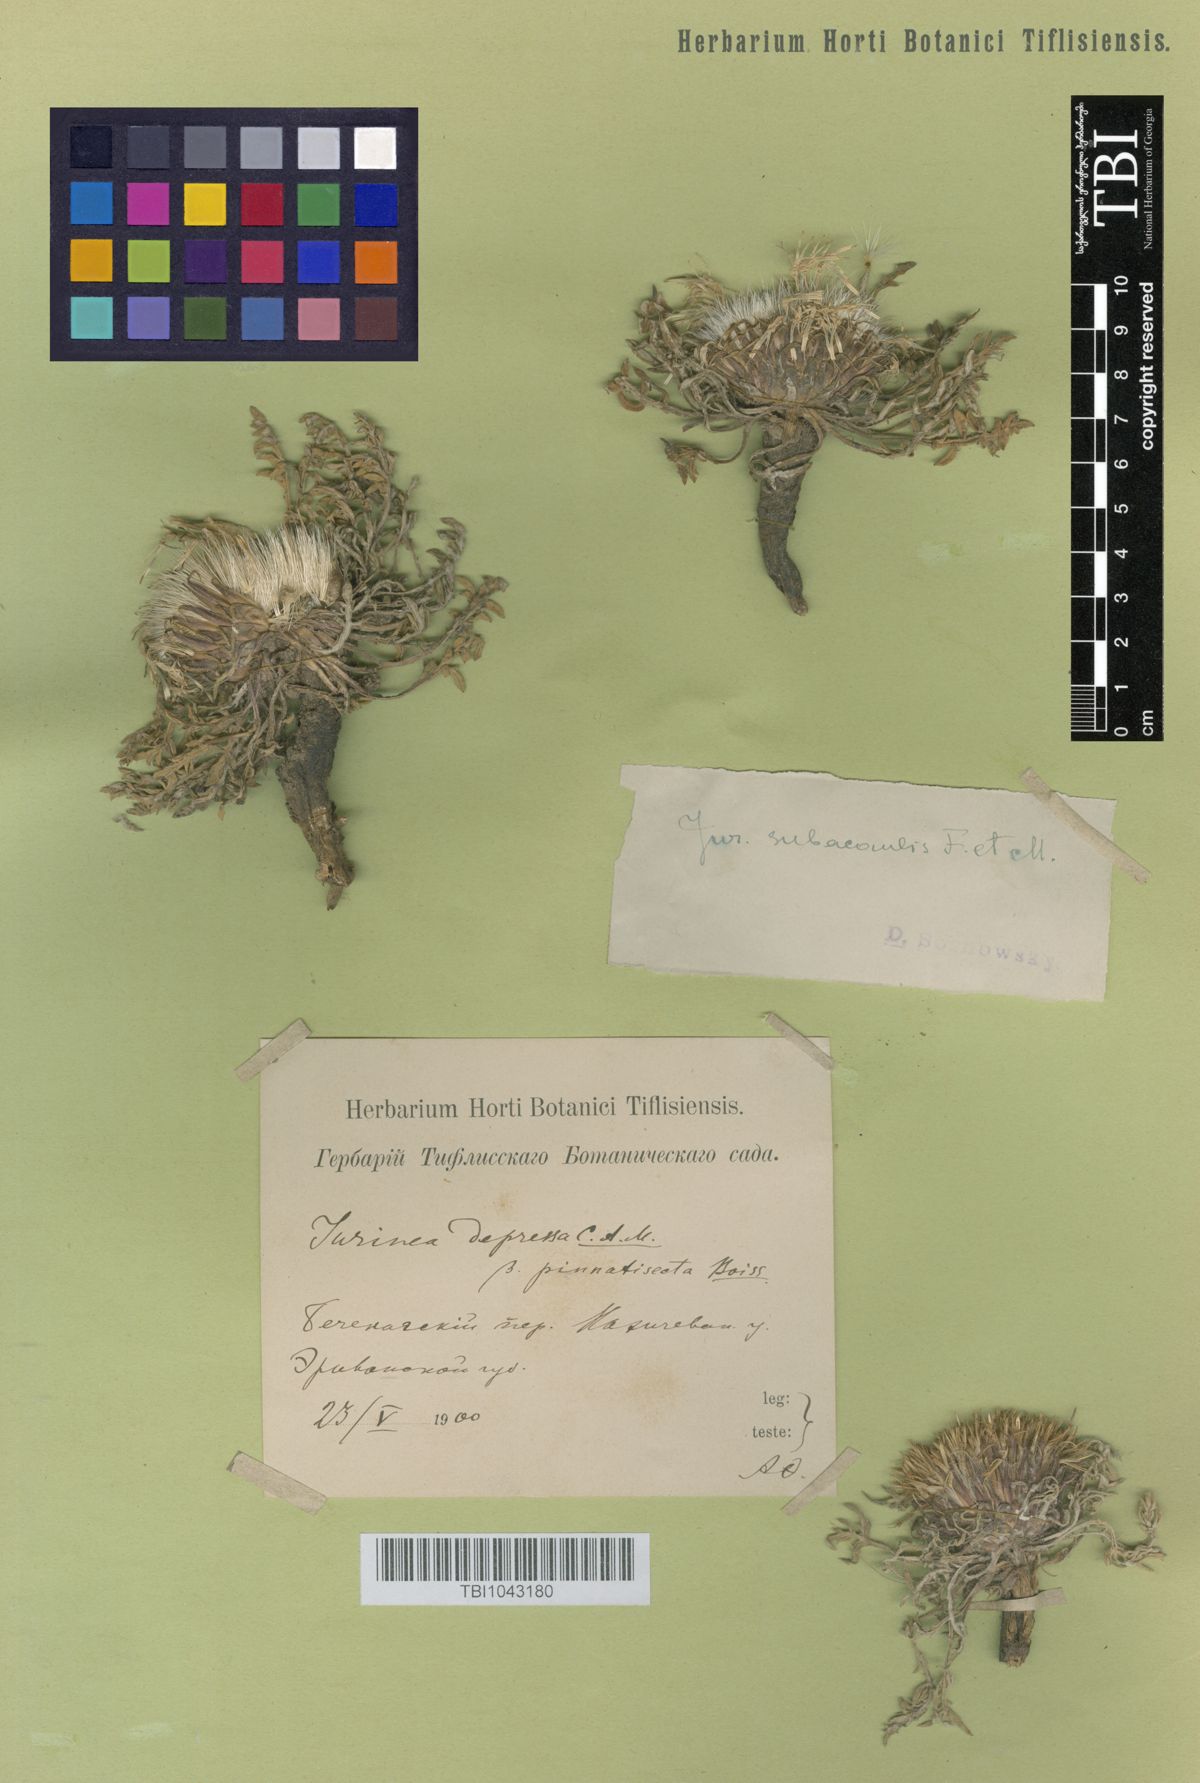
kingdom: Plantae
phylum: Tracheophyta
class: Magnoliopsida
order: Asterales
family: Asteraceae
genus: Jurinea
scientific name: Jurinea moschus
